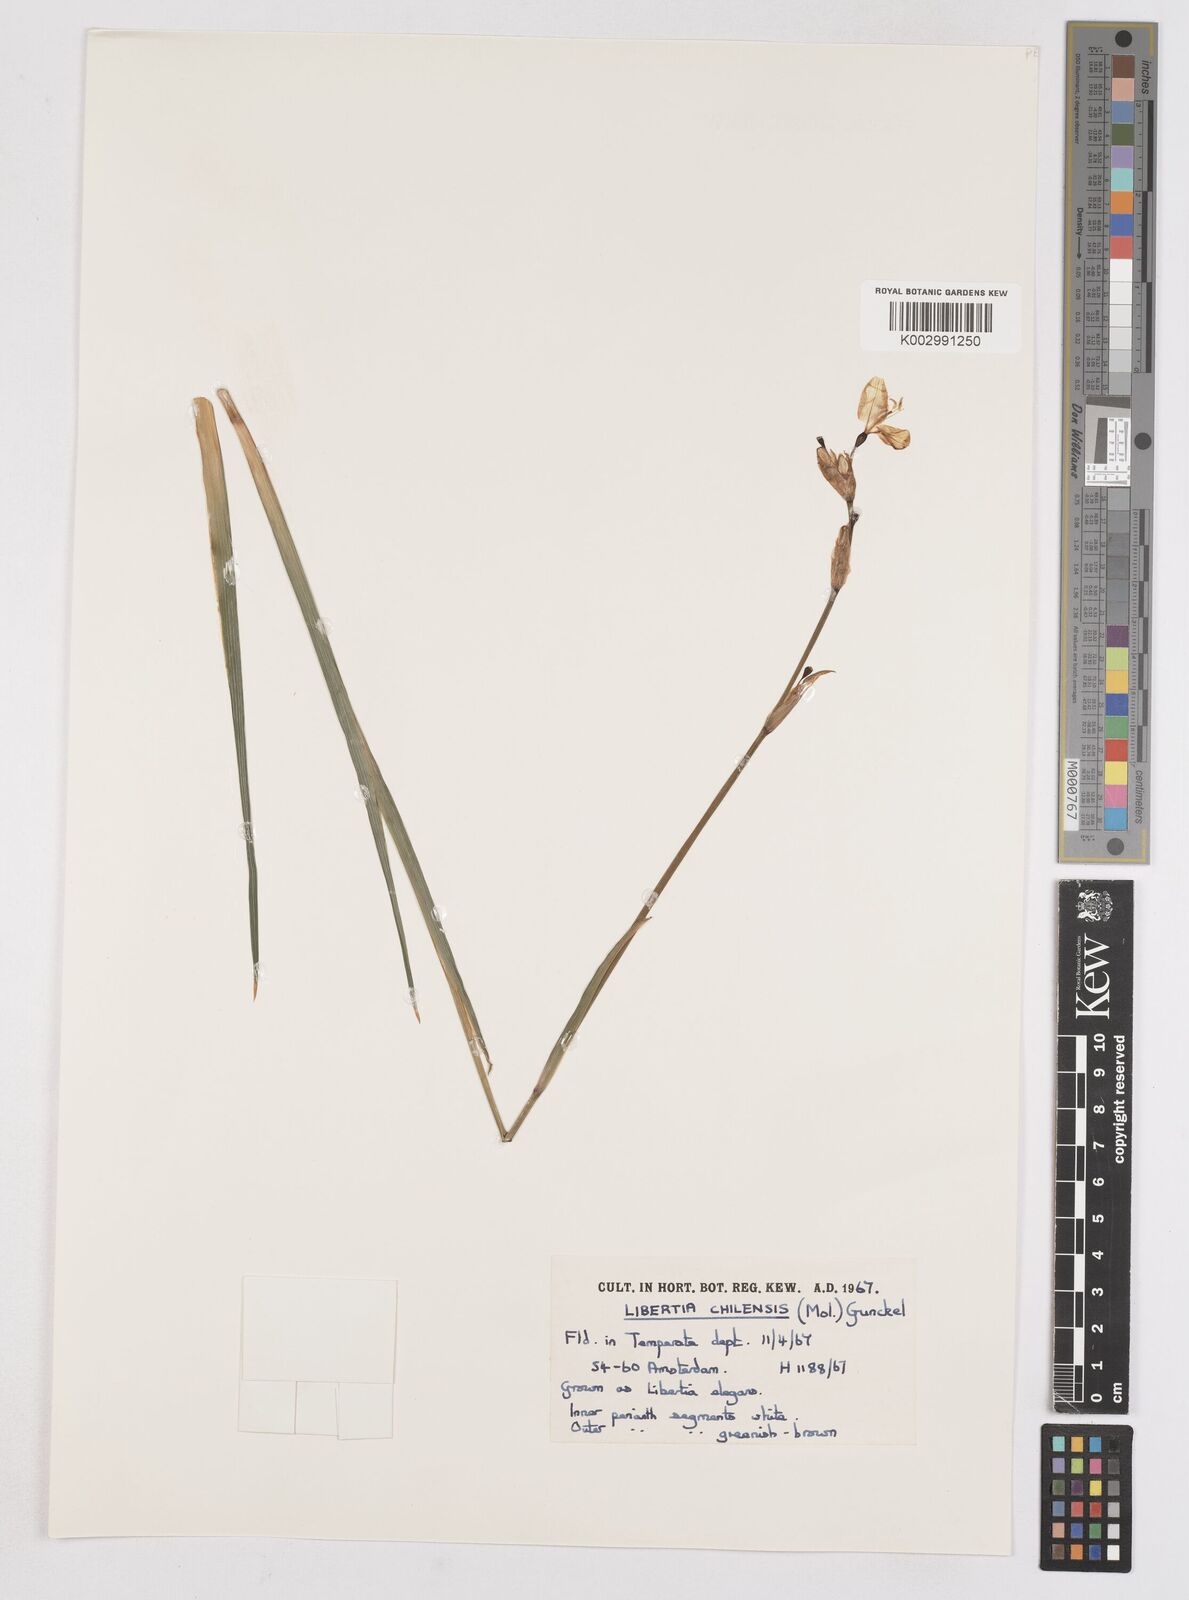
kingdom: Plantae
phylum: Tracheophyta
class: Liliopsida
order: Asparagales
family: Iridaceae
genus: Libertia
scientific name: Libertia chilensis
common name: Satin flower
